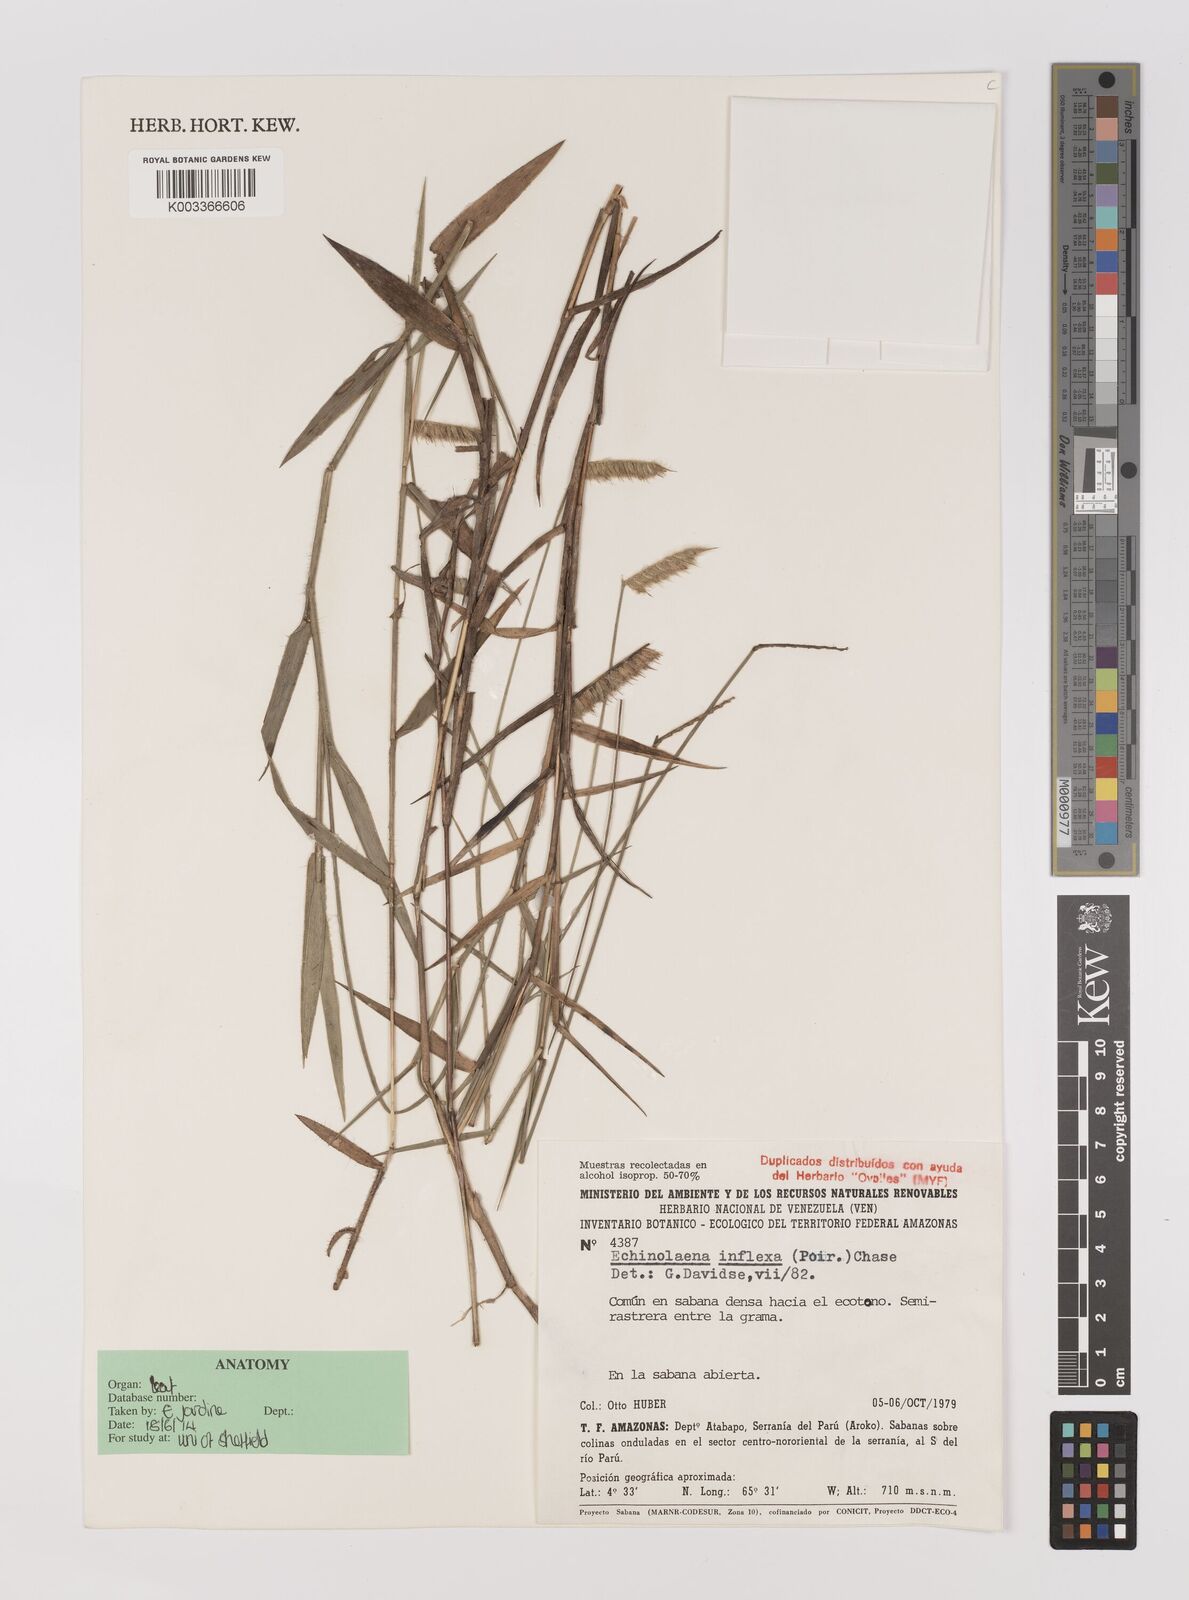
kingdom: Plantae
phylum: Tracheophyta
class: Liliopsida
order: Poales
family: Poaceae
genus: Echinolaena
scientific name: Echinolaena inflexa
